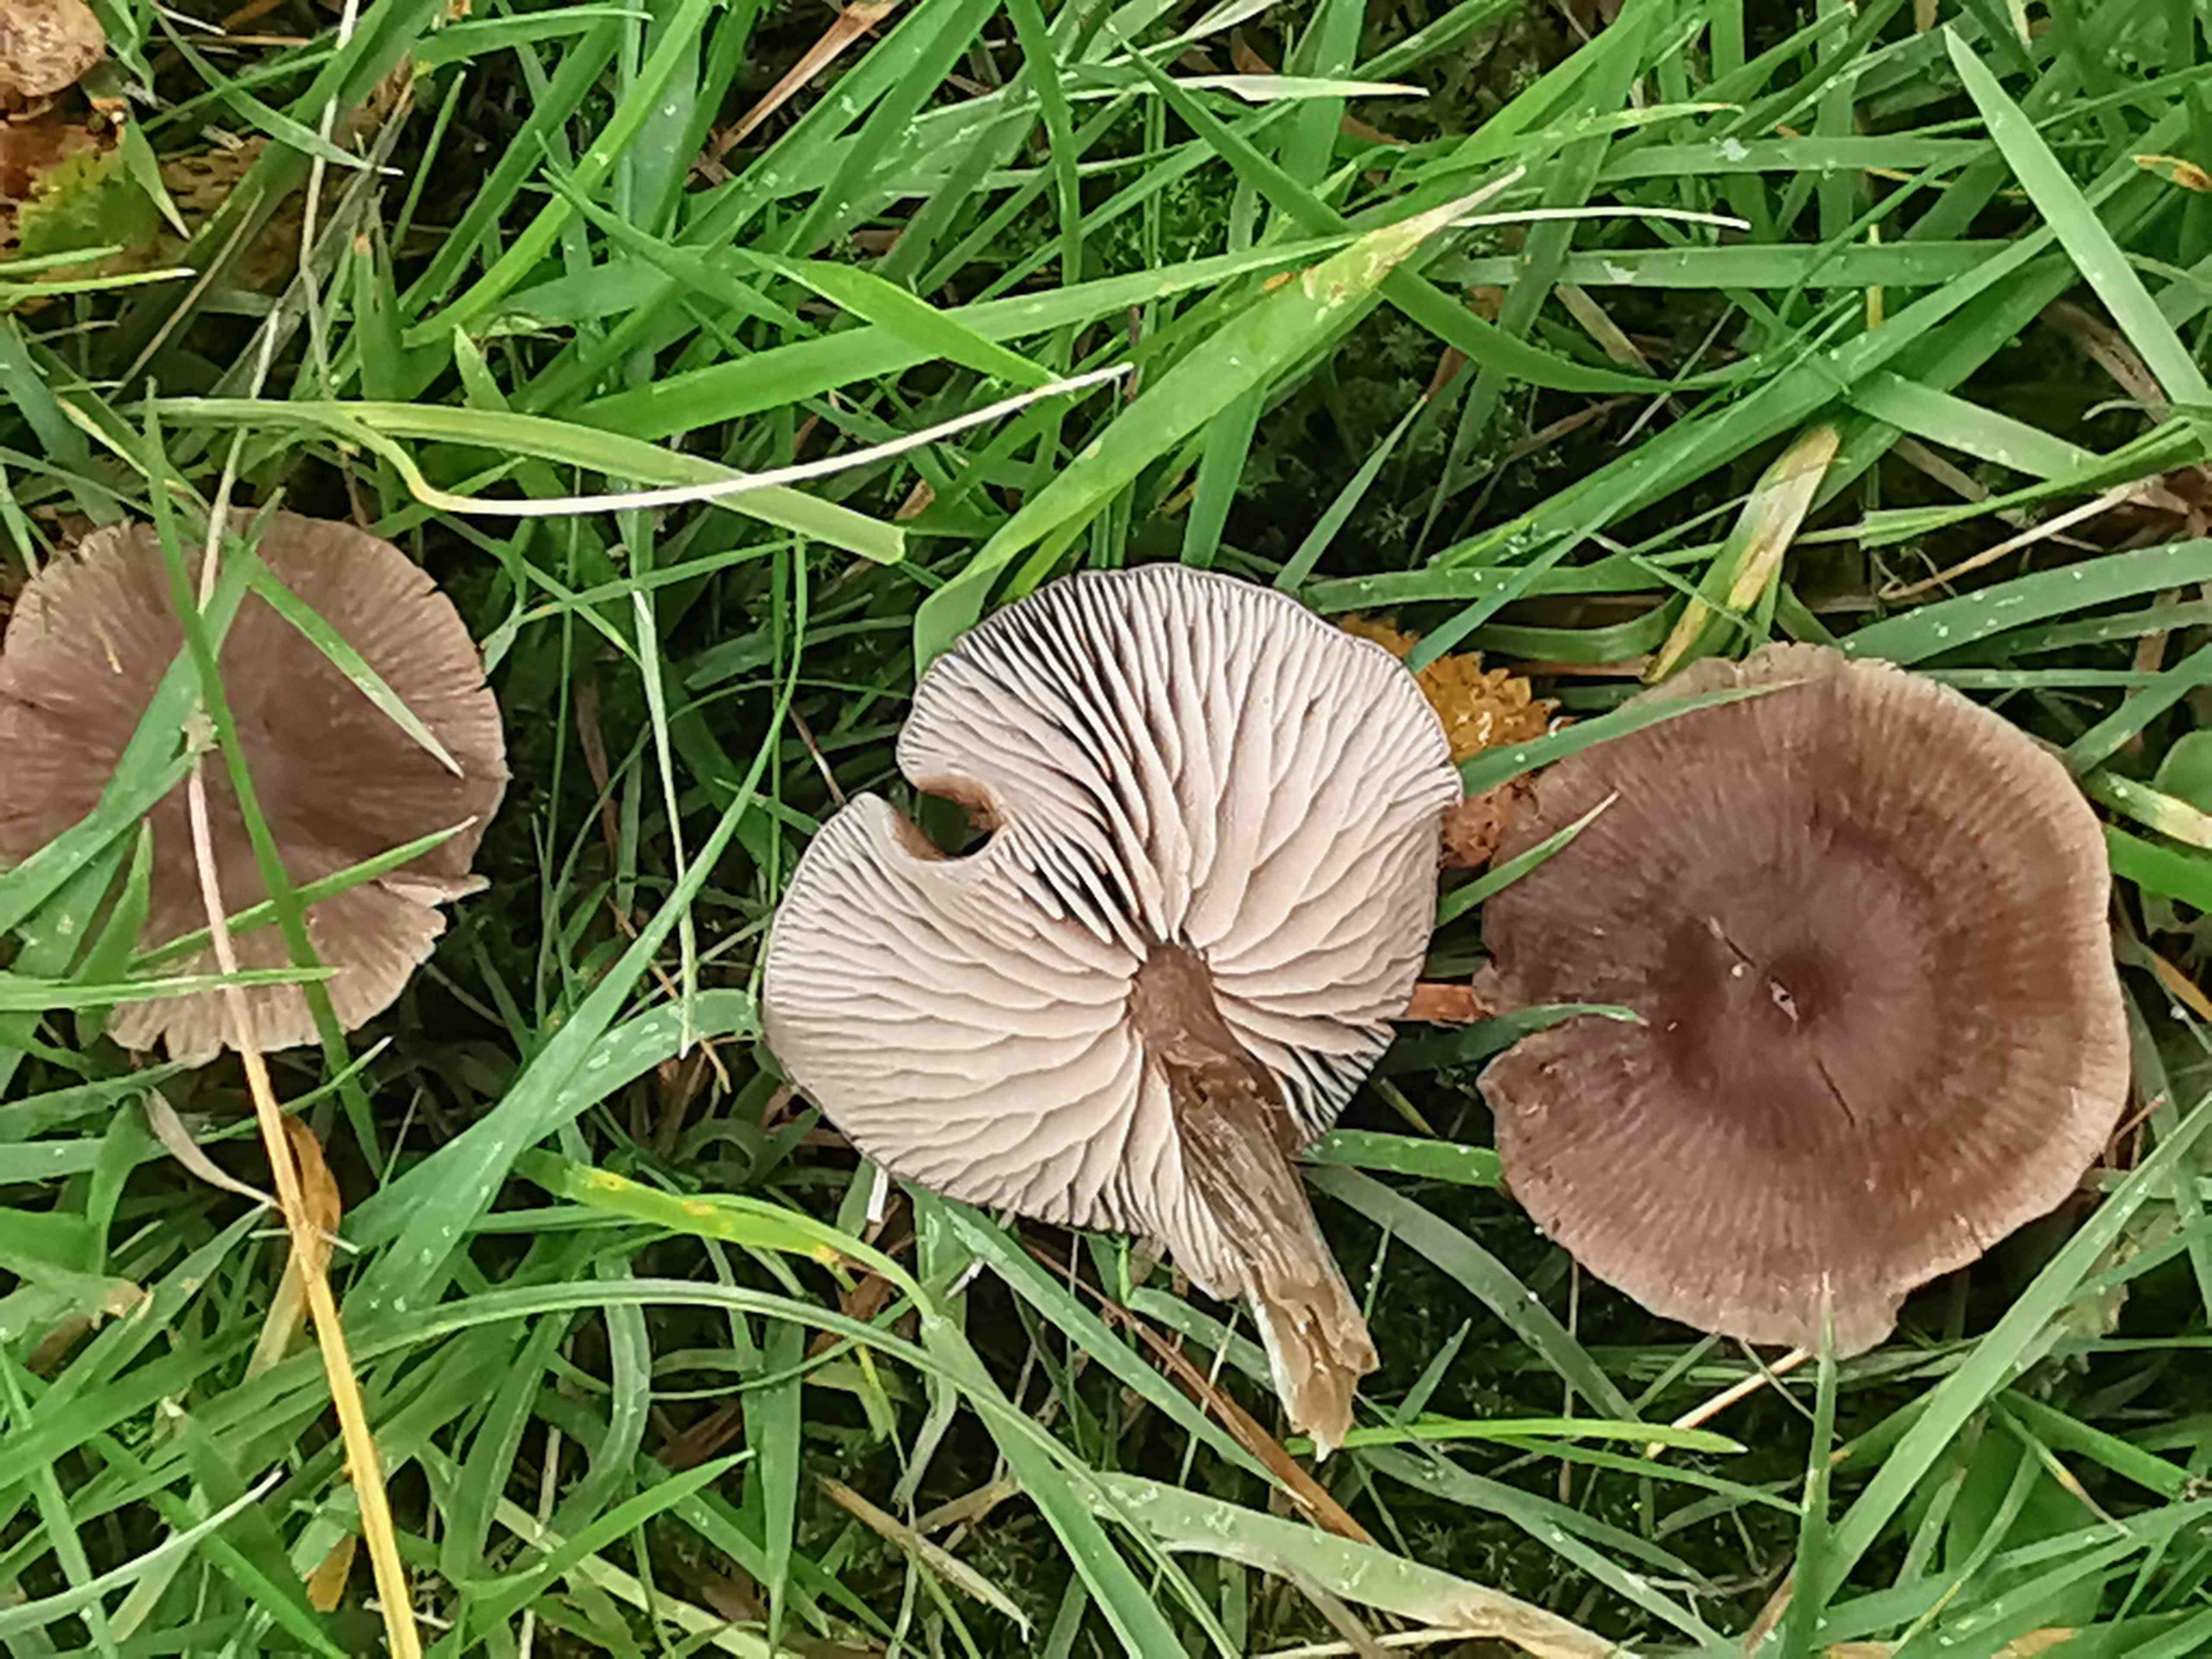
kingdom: Fungi
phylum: Basidiomycota
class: Agaricomycetes
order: Agaricales
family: Entolomataceae
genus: Entoloma
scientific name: Entoloma sericeum
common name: silkeglinsende rødblad
